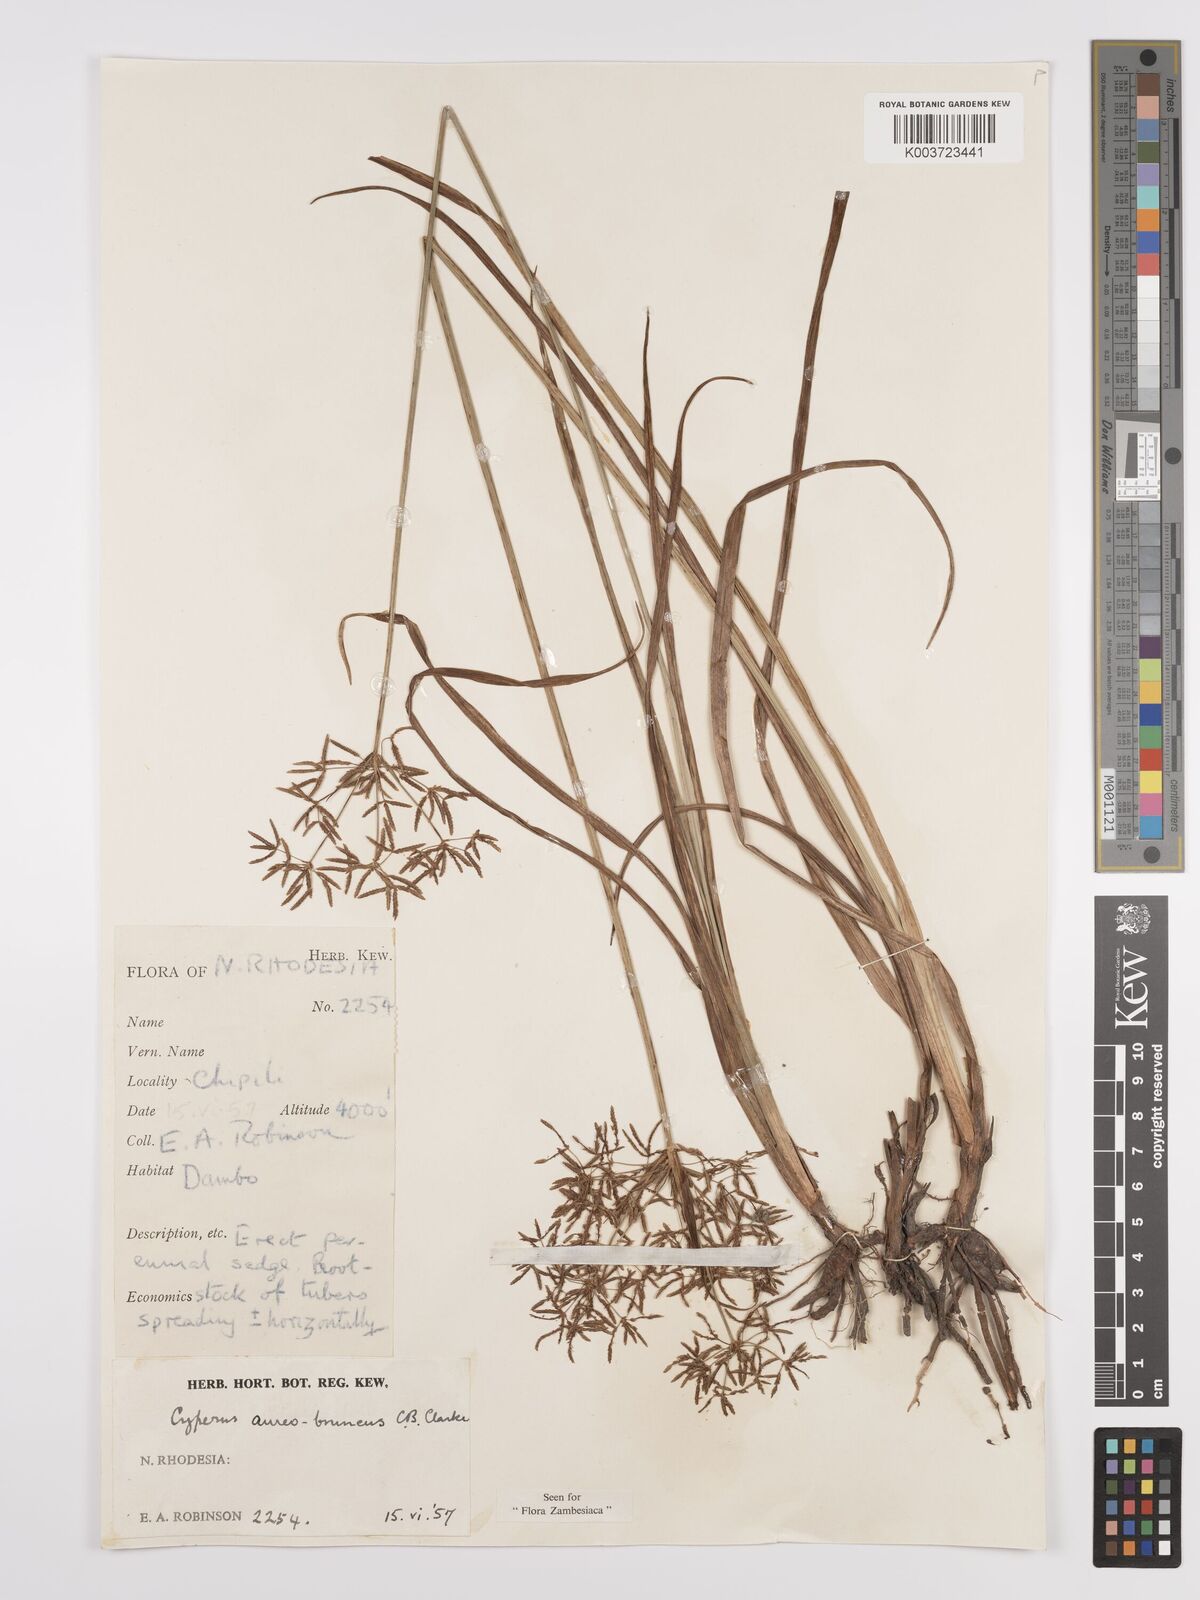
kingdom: Plantae
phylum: Tracheophyta
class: Liliopsida
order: Poales
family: Cyperaceae
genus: Cyperus
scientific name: Cyperus aureobrunneus
